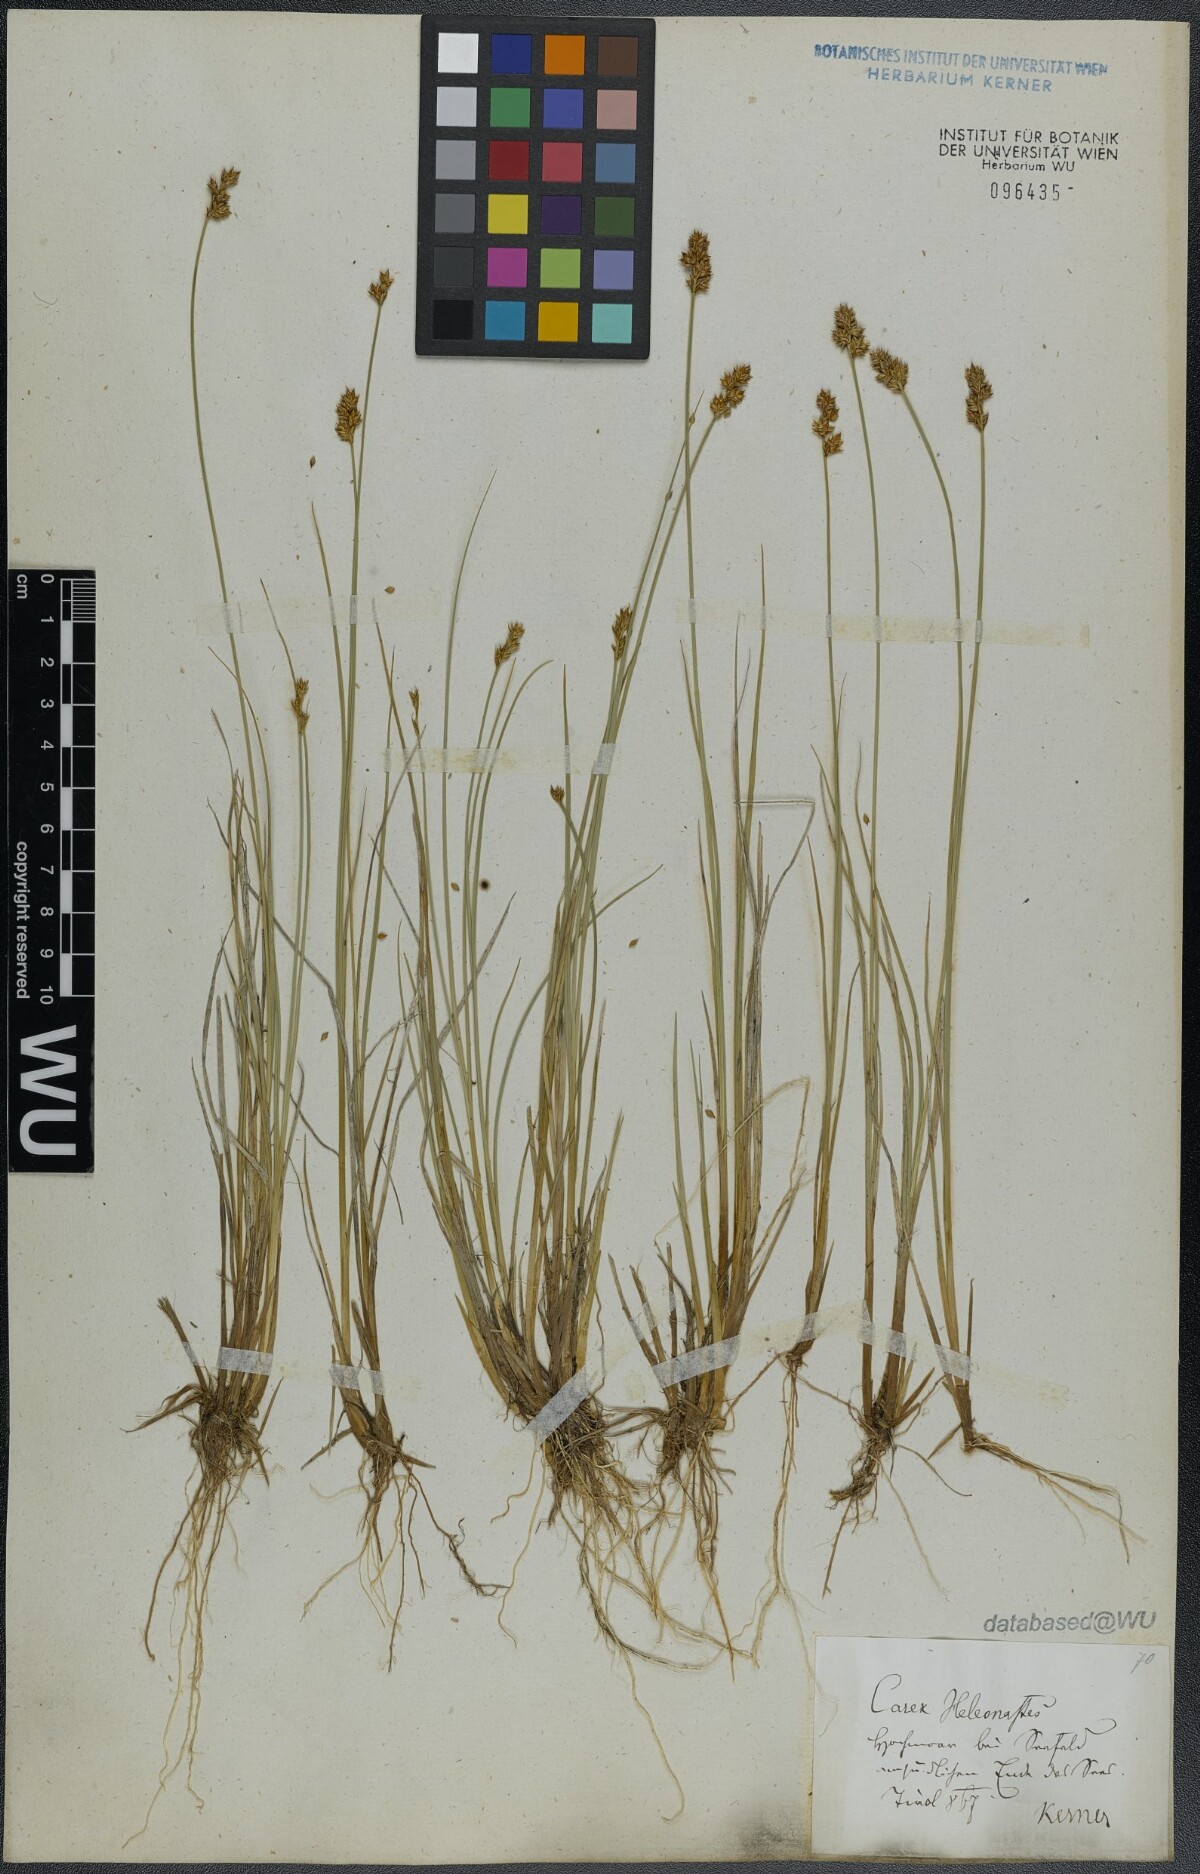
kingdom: Plantae
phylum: Tracheophyta
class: Liliopsida
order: Poales
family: Cyperaceae
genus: Carex
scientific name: Carex heleonastes
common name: Hudson bay sedge
